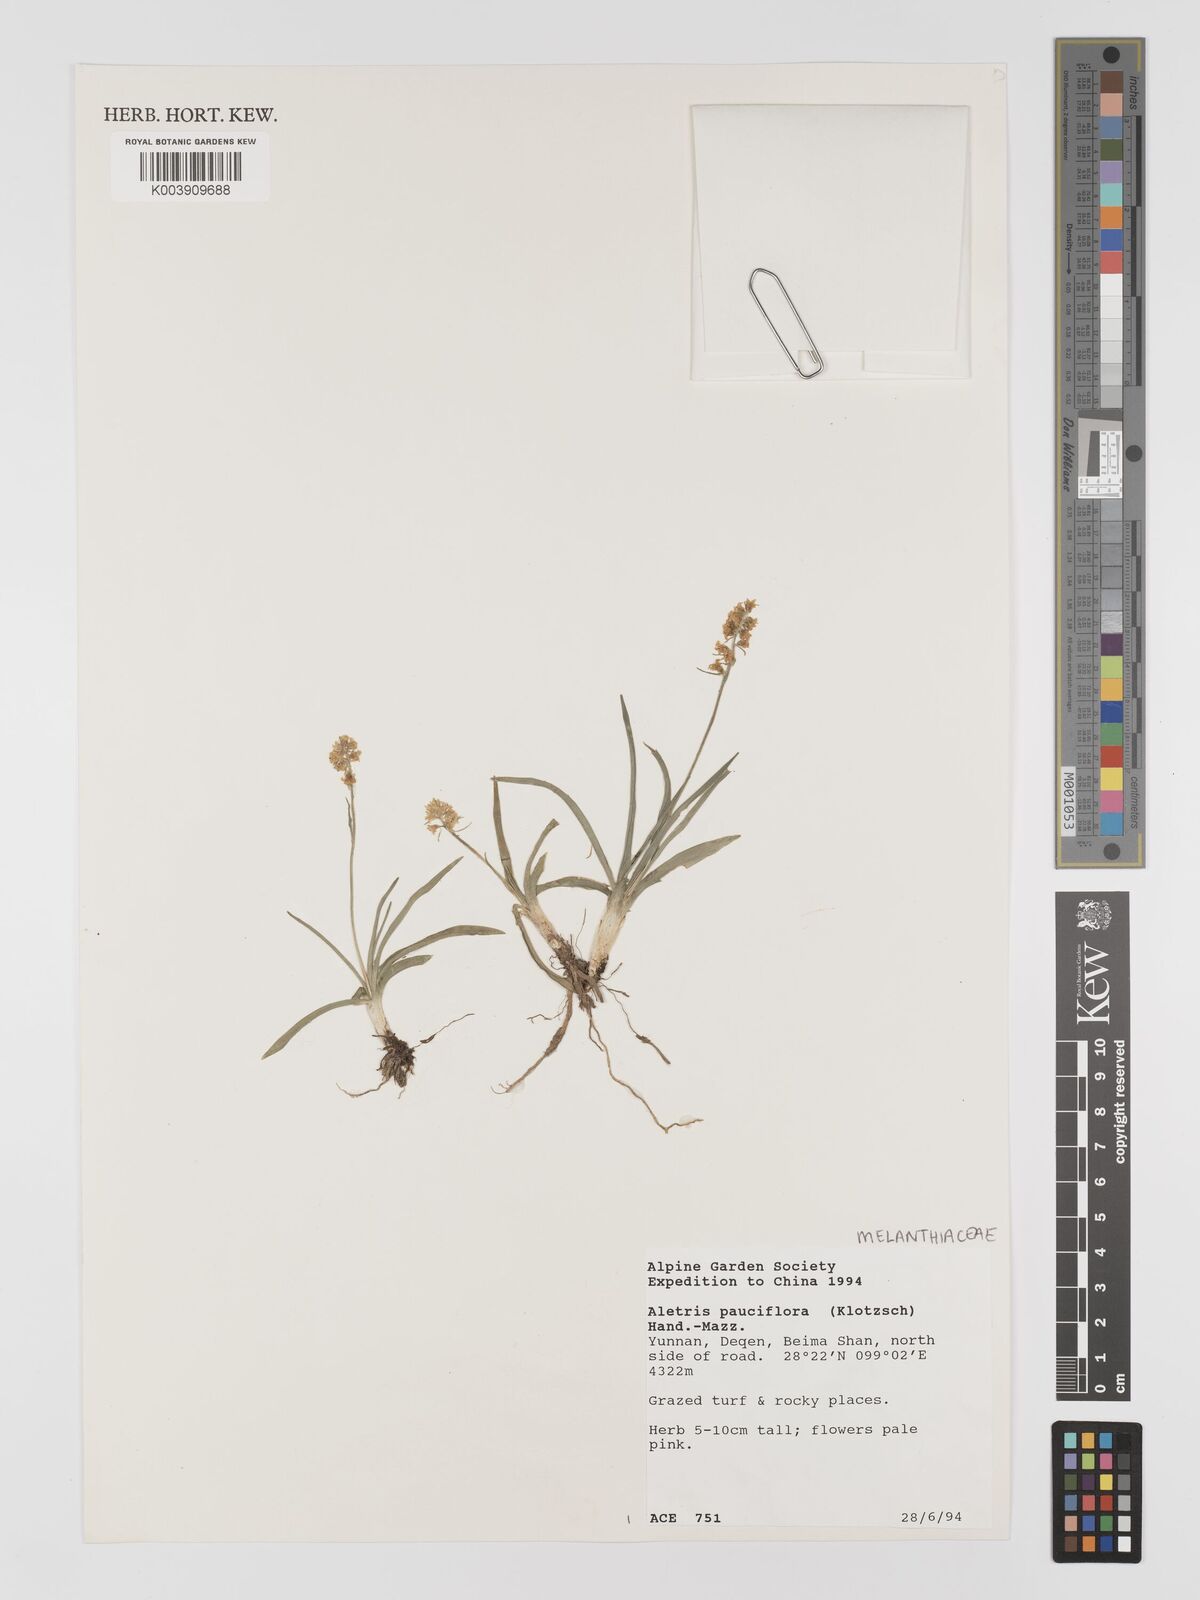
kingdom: Plantae
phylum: Tracheophyta
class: Liliopsida
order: Dioscoreales
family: Nartheciaceae
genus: Aletris
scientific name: Aletris pauciflora
